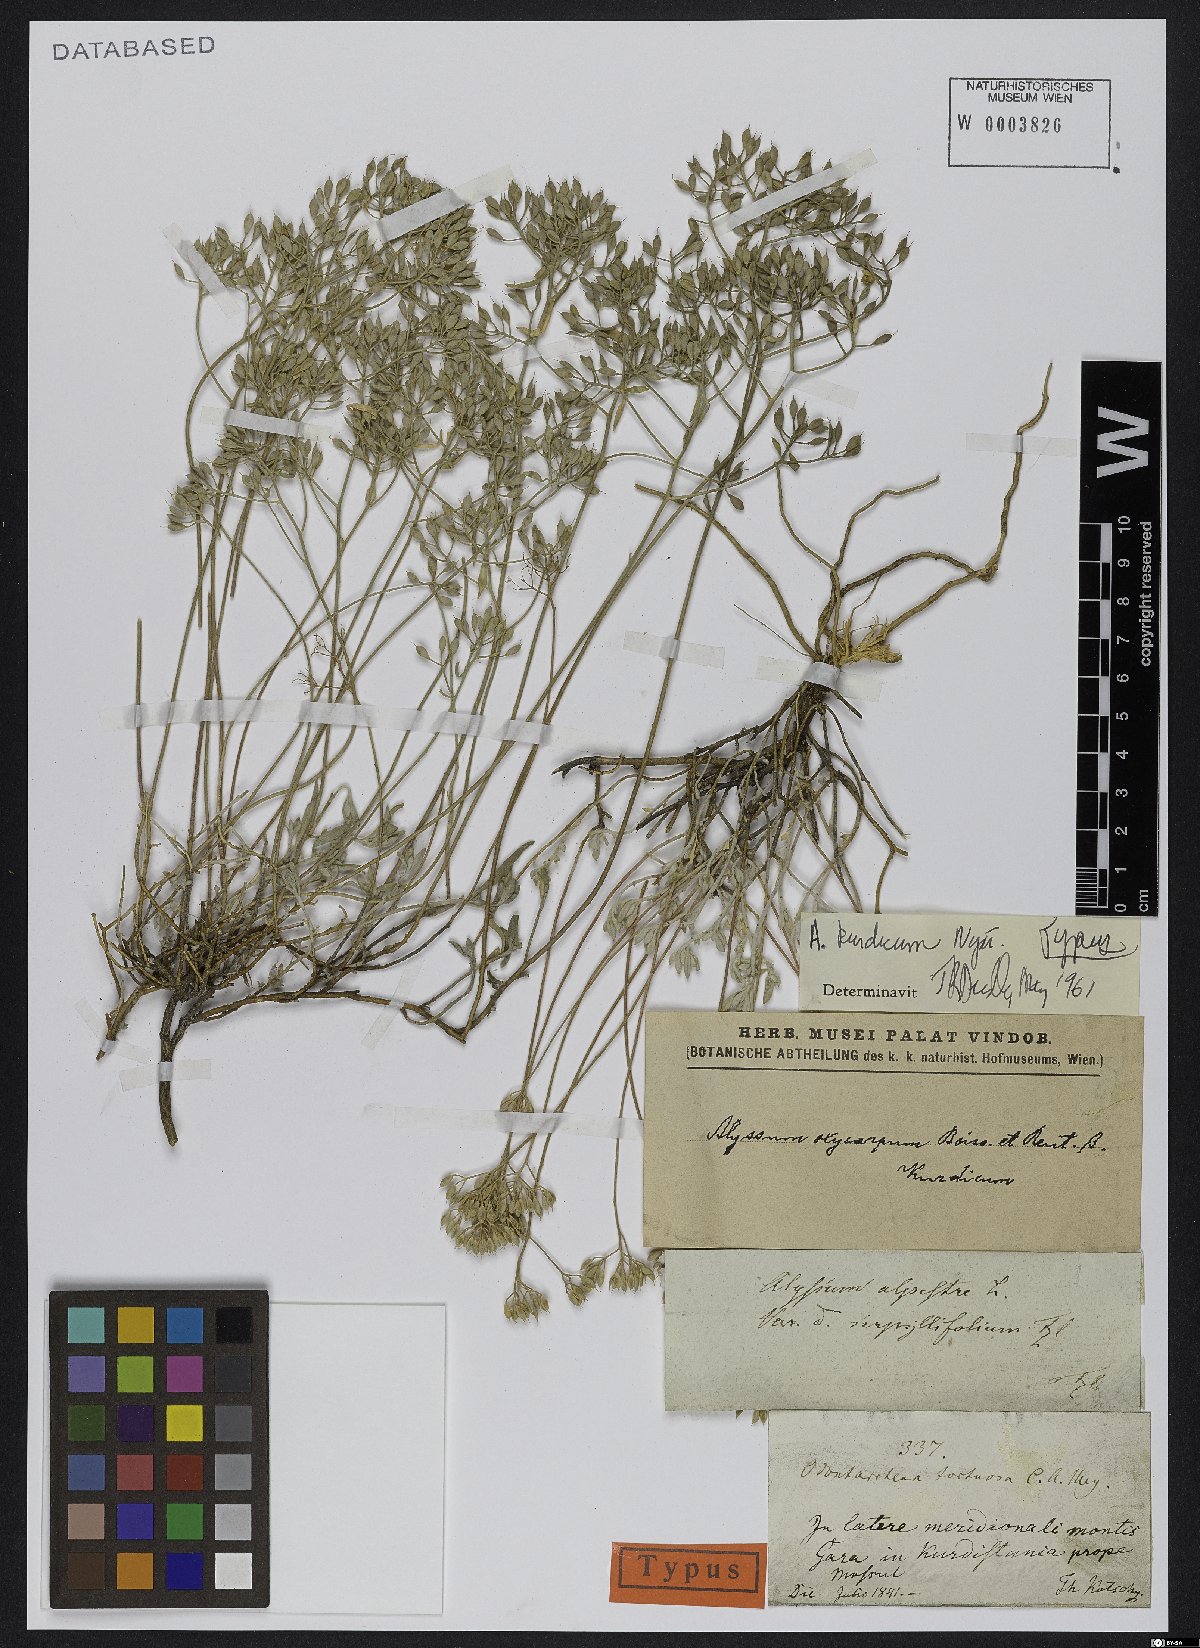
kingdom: Plantae
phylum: Tracheophyta
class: Magnoliopsida
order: Brassicales
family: Brassicaceae
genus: Odontarrhena
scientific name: Odontarrhena kurdica
